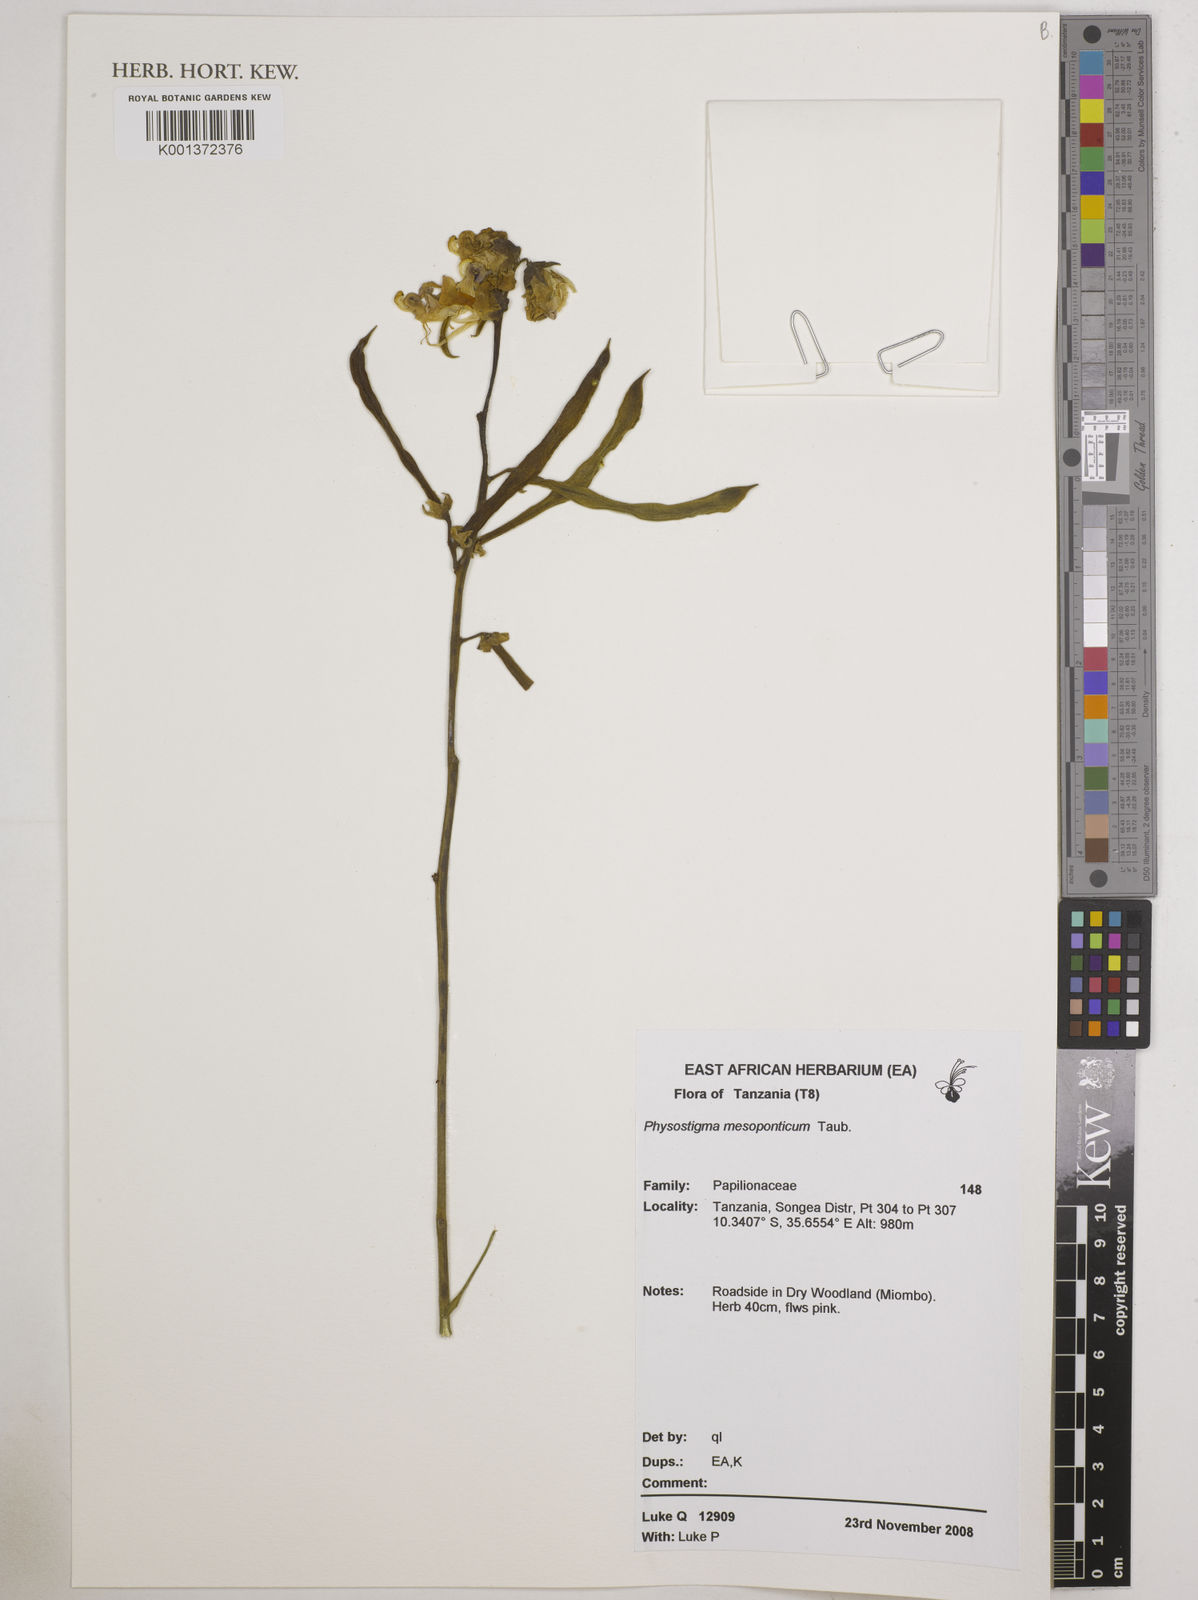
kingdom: Plantae
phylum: Tracheophyta
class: Magnoliopsida
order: Fabales
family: Fabaceae
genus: Physostigma
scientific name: Physostigma mesoponticum
